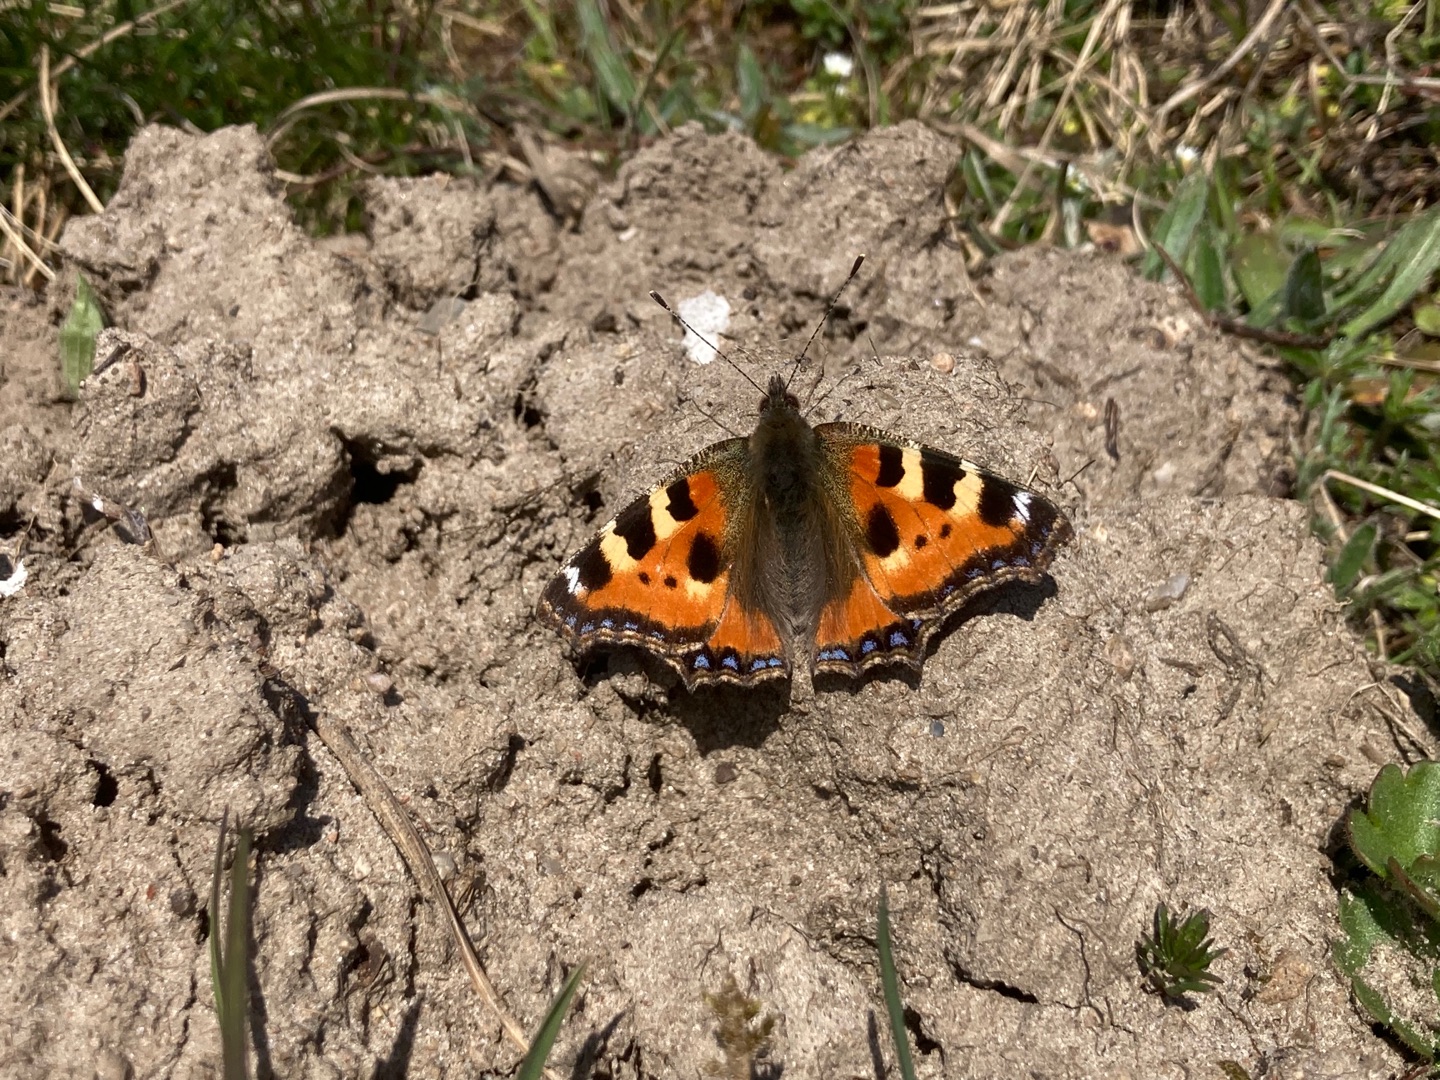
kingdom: Animalia
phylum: Arthropoda
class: Insecta
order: Lepidoptera
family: Nymphalidae
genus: Aglais
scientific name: Aglais urticae
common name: Nældens takvinge
